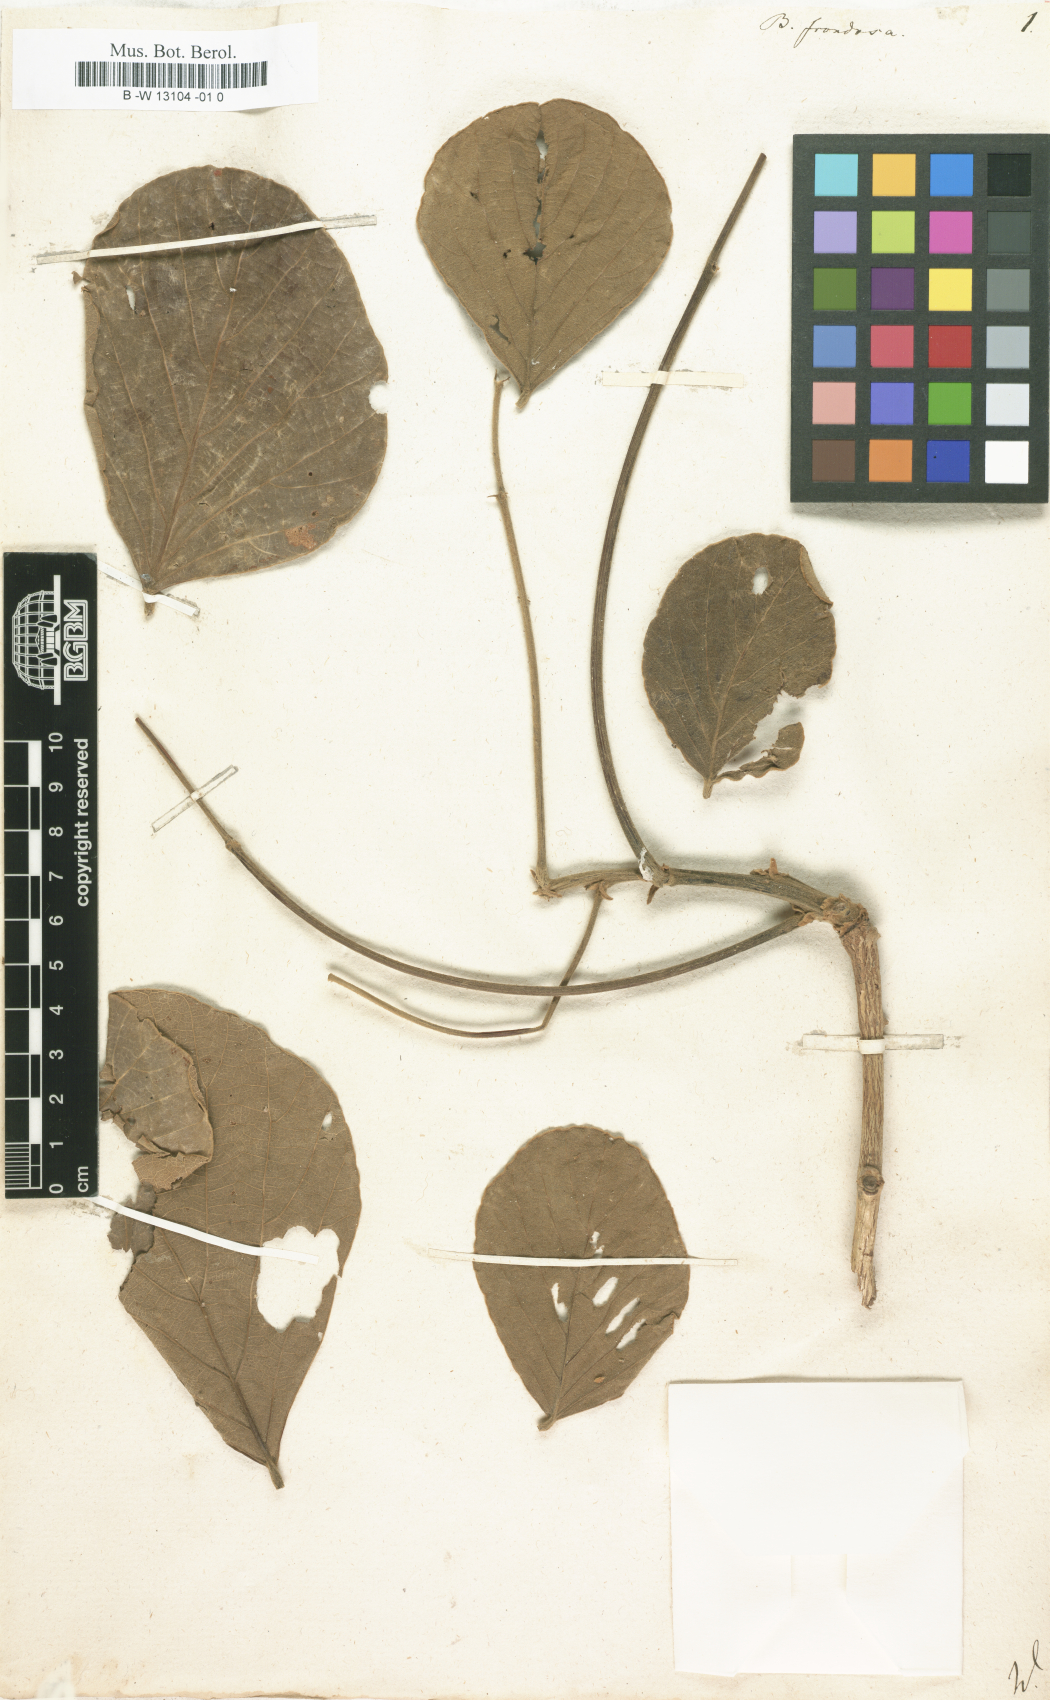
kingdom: Plantae
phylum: Tracheophyta
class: Magnoliopsida
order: Fabales
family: Fabaceae
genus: Butea
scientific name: Butea monosperma
